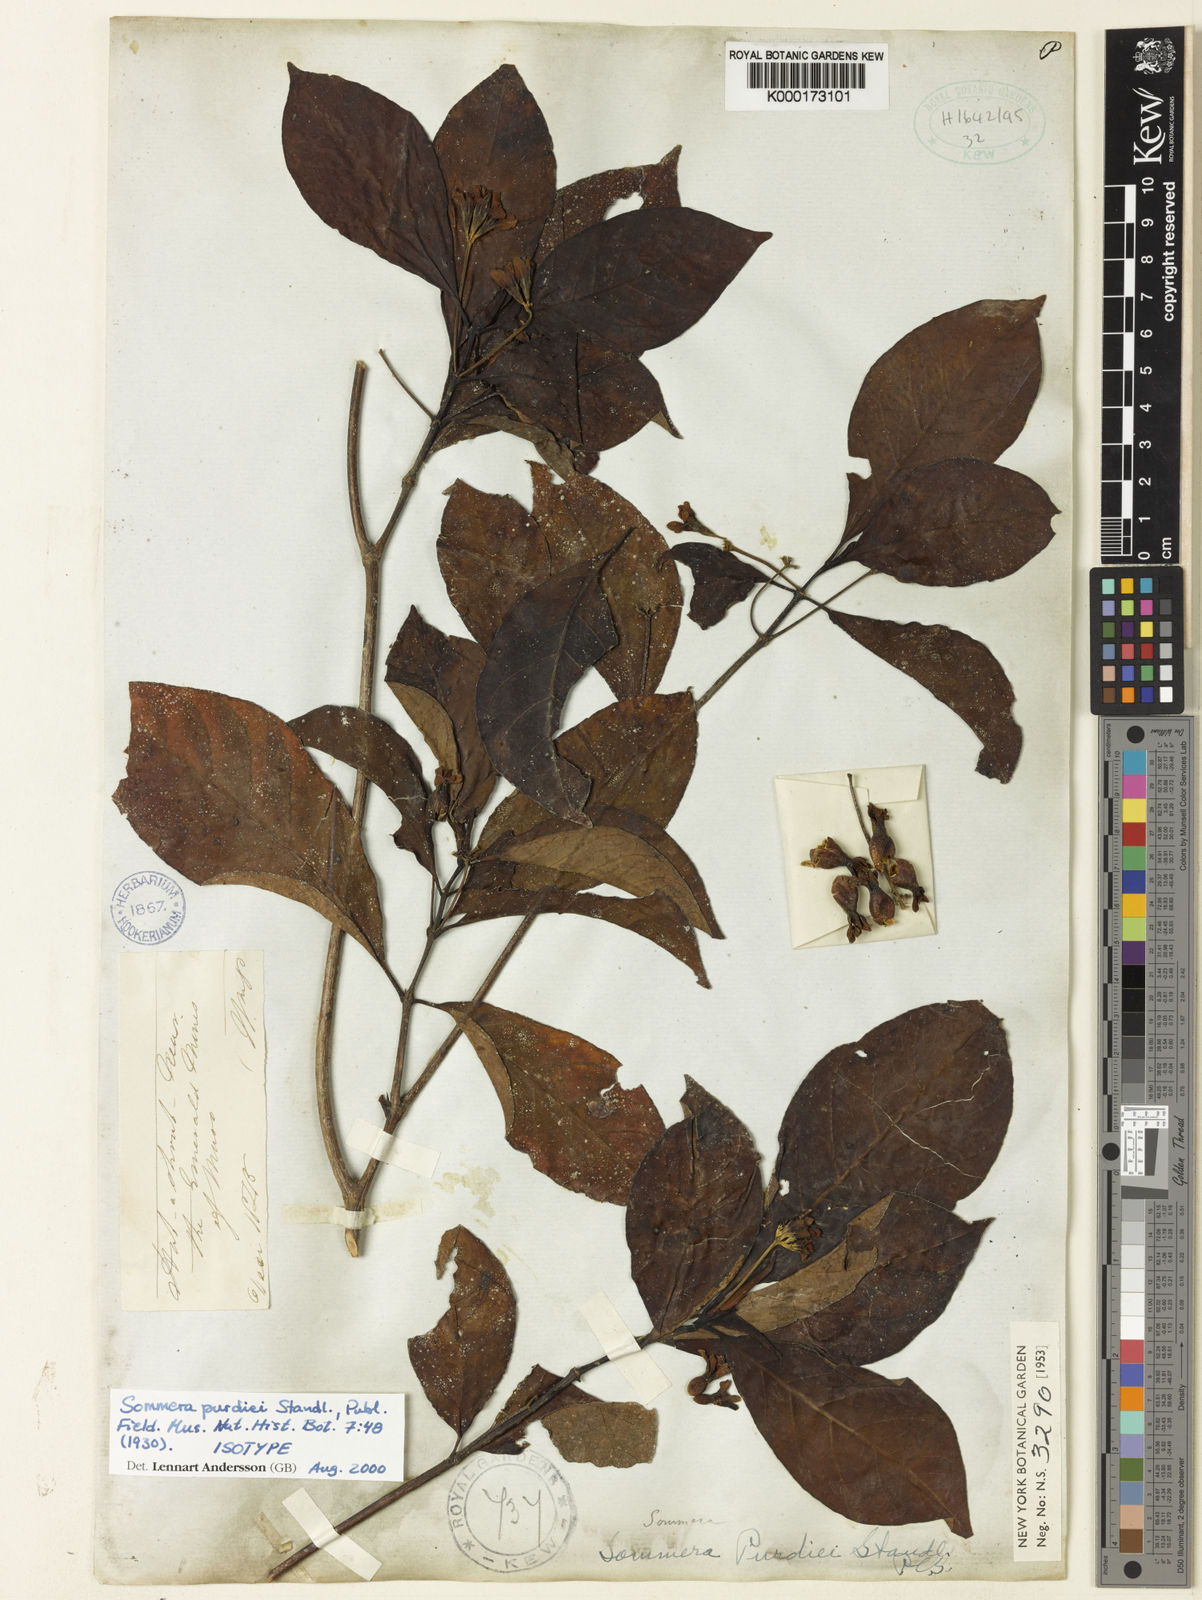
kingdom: Plantae
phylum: Tracheophyta
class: Magnoliopsida
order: Gentianales
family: Rubiaceae
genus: Sommera
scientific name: Sommera purdiei
